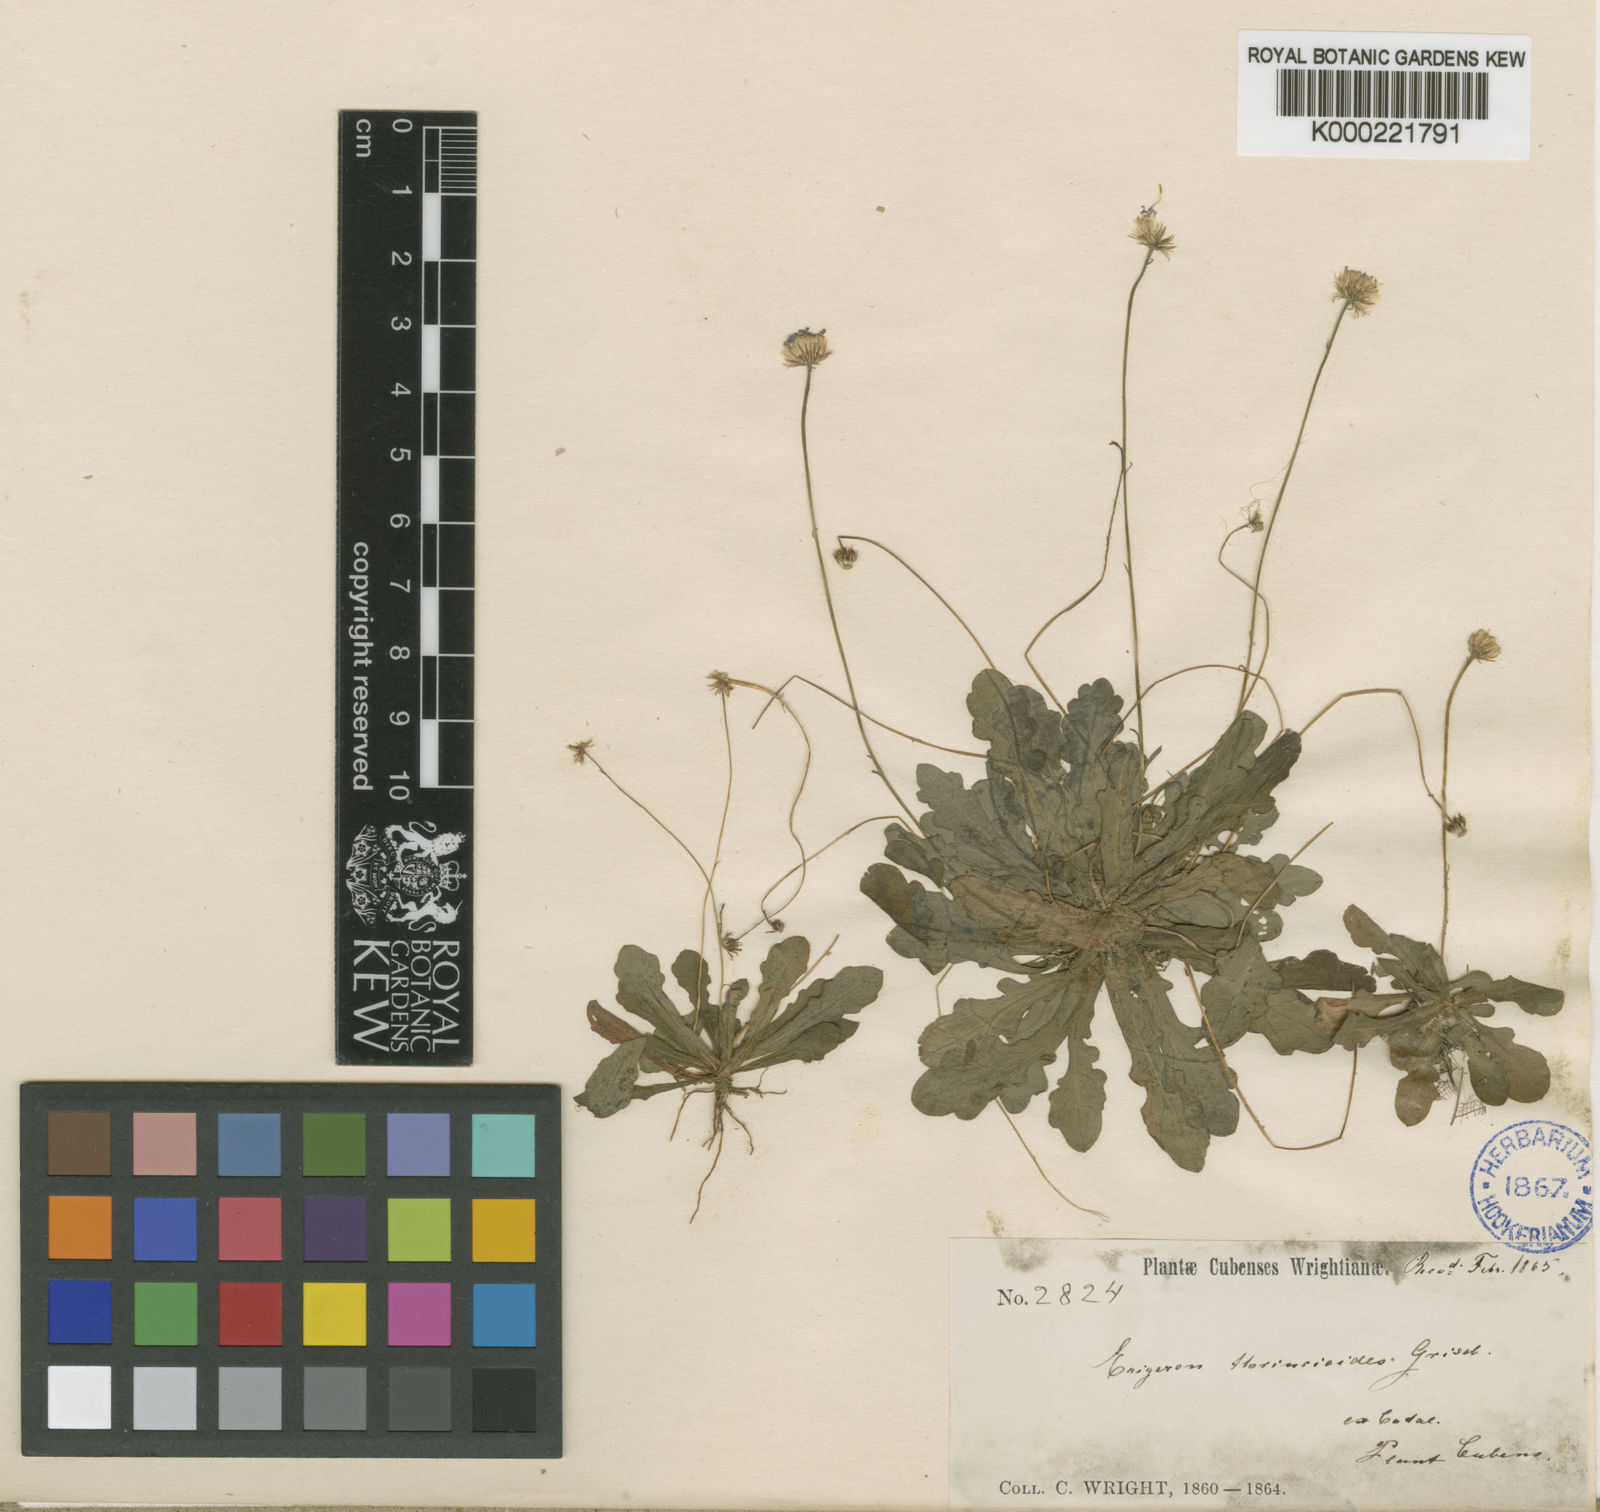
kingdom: Plantae
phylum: Tracheophyta
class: Magnoliopsida
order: Asterales
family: Asteraceae
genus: Erigeron
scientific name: Erigeron thrincioides
